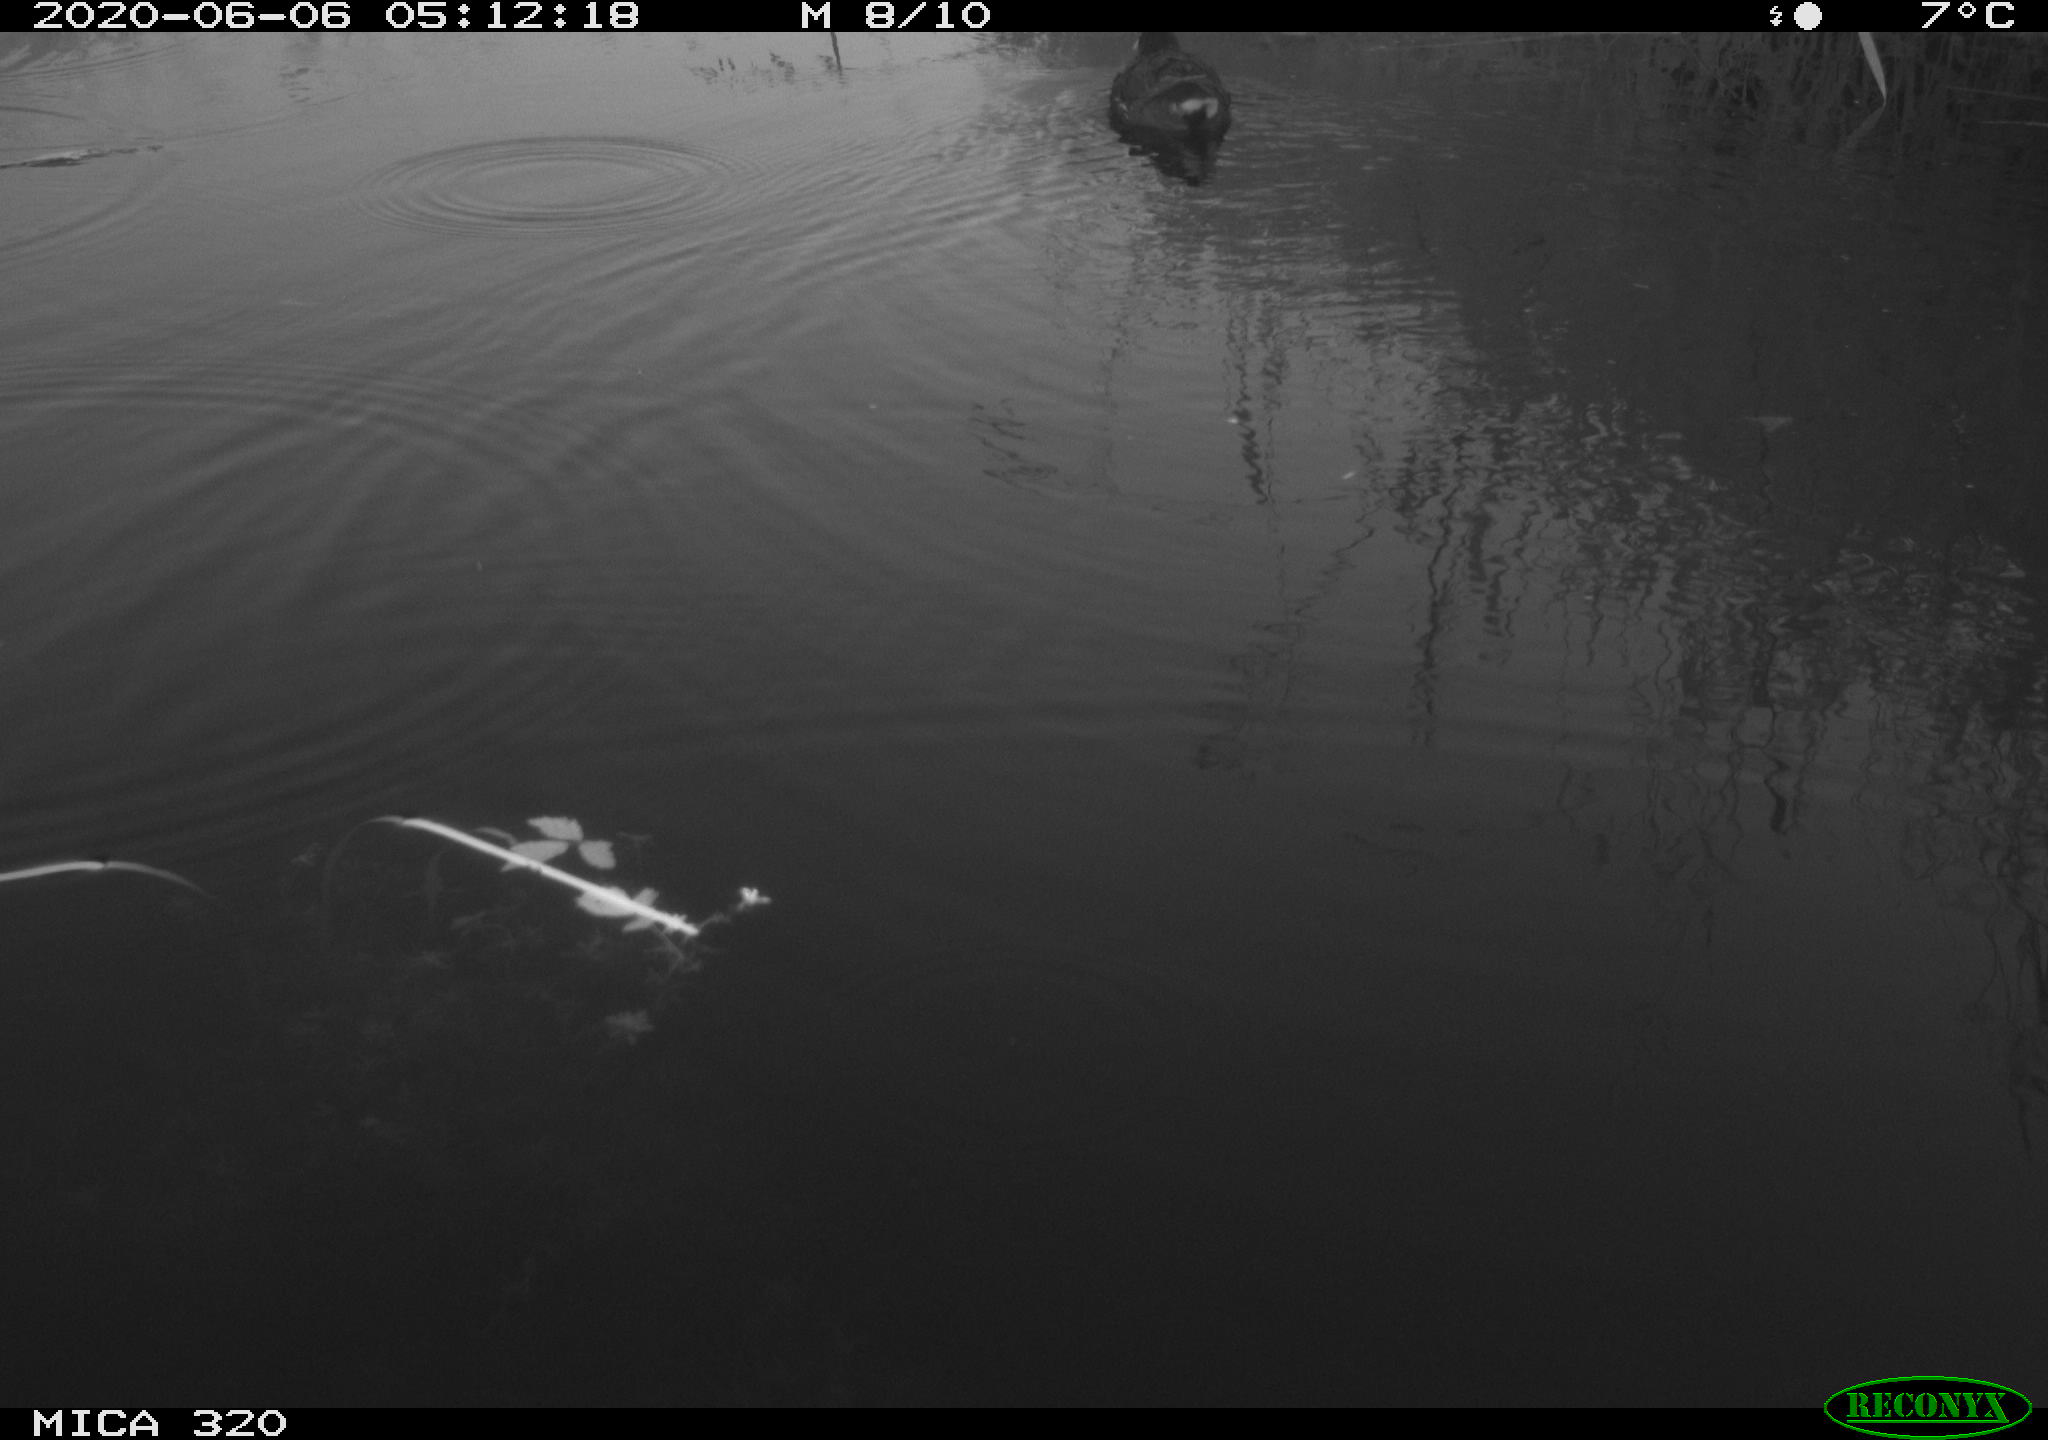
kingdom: Animalia
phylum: Chordata
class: Aves
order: Gruiformes
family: Rallidae
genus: Gallinula
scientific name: Gallinula chloropus
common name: Common moorhen
